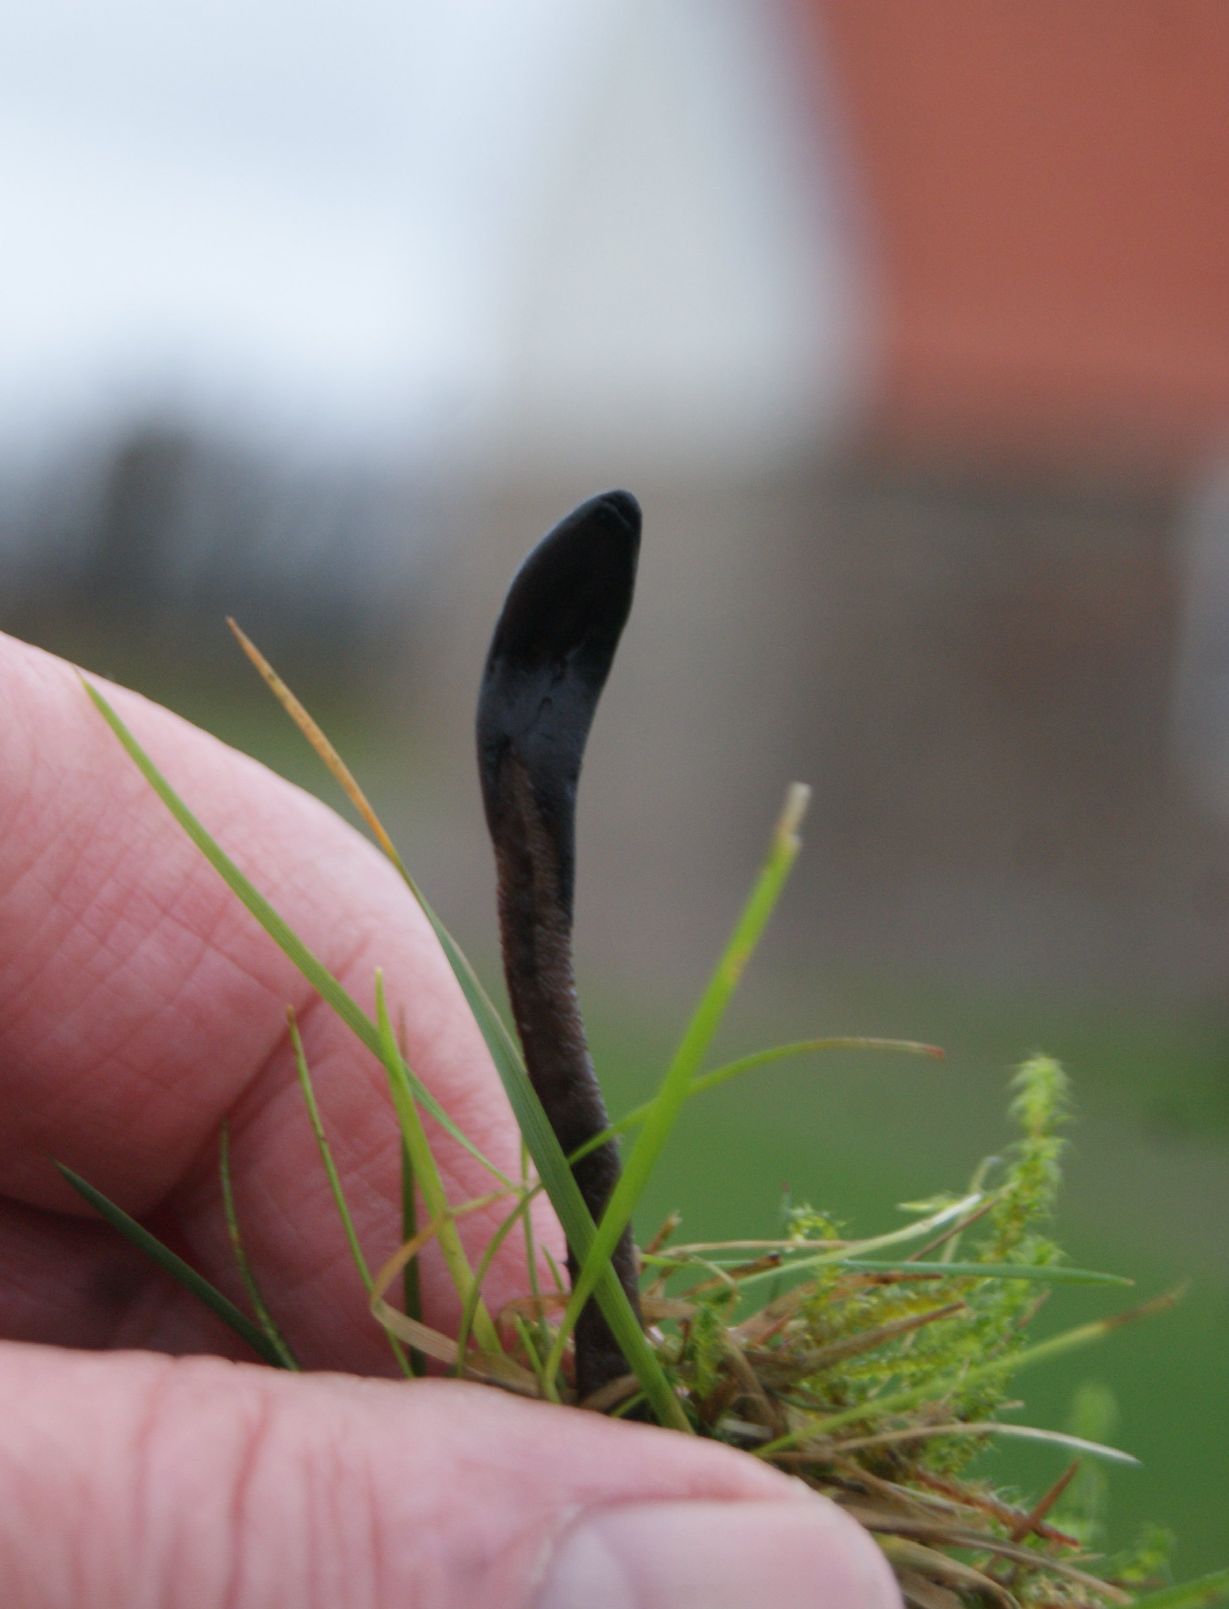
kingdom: Fungi
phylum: Ascomycota
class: Geoglossomycetes
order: Geoglossales
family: Geoglossaceae
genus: Geoglossum
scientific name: Geoglossum fallax
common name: småskællet jordtunge
